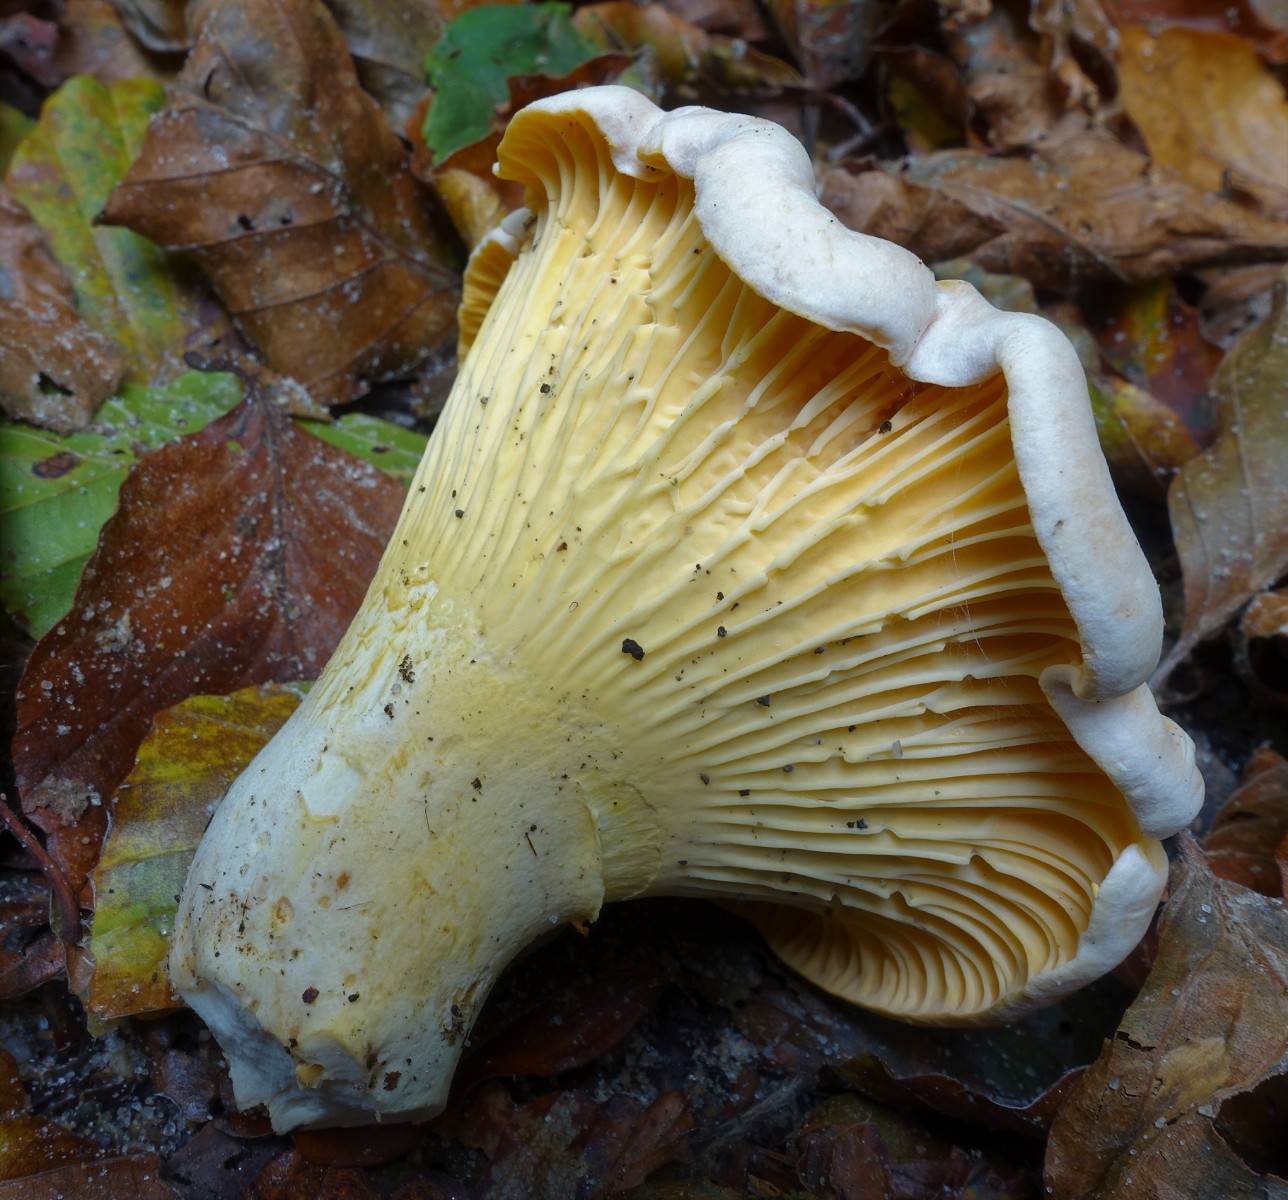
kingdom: Fungi
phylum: Basidiomycota
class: Agaricomycetes
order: Cantharellales
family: Hydnaceae
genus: Cantharellus
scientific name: Cantharellus pallens
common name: bleg kantarel
